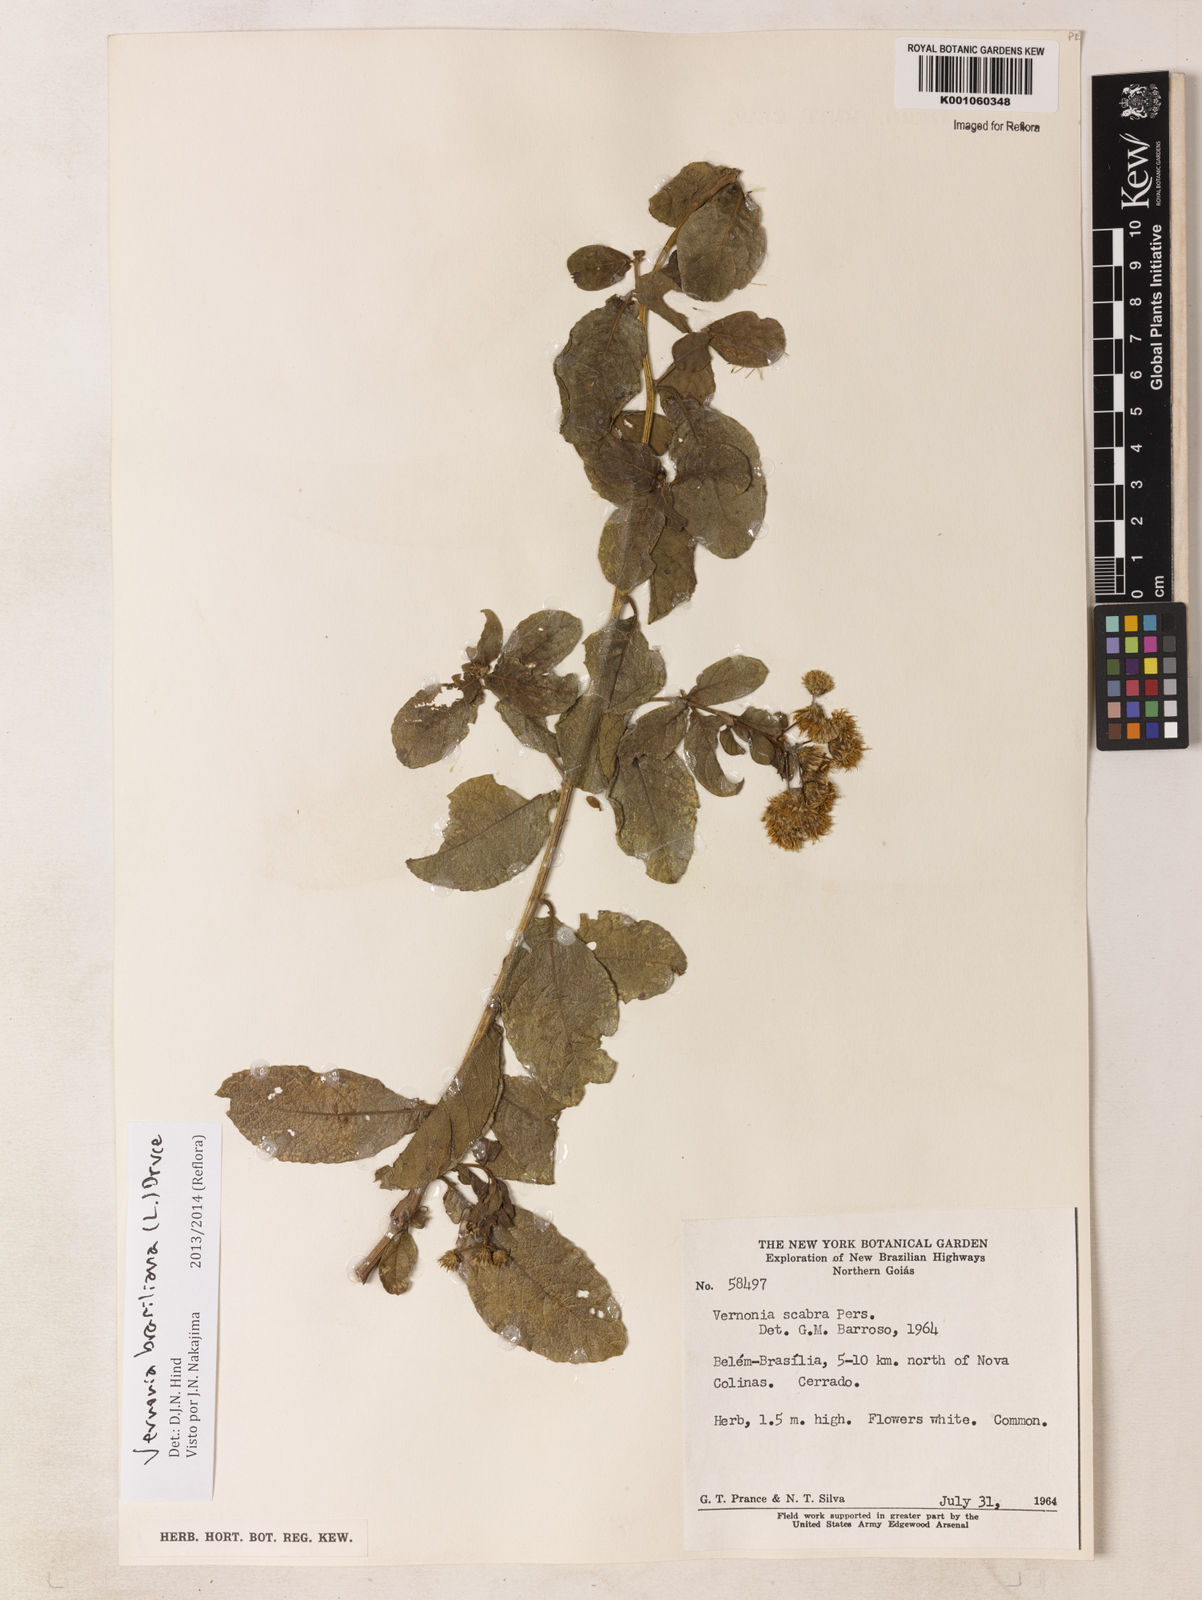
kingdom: Plantae
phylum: Tracheophyta
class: Magnoliopsida
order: Asterales
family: Asteraceae
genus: Vernonanthura
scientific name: Vernonanthura brasiliana
